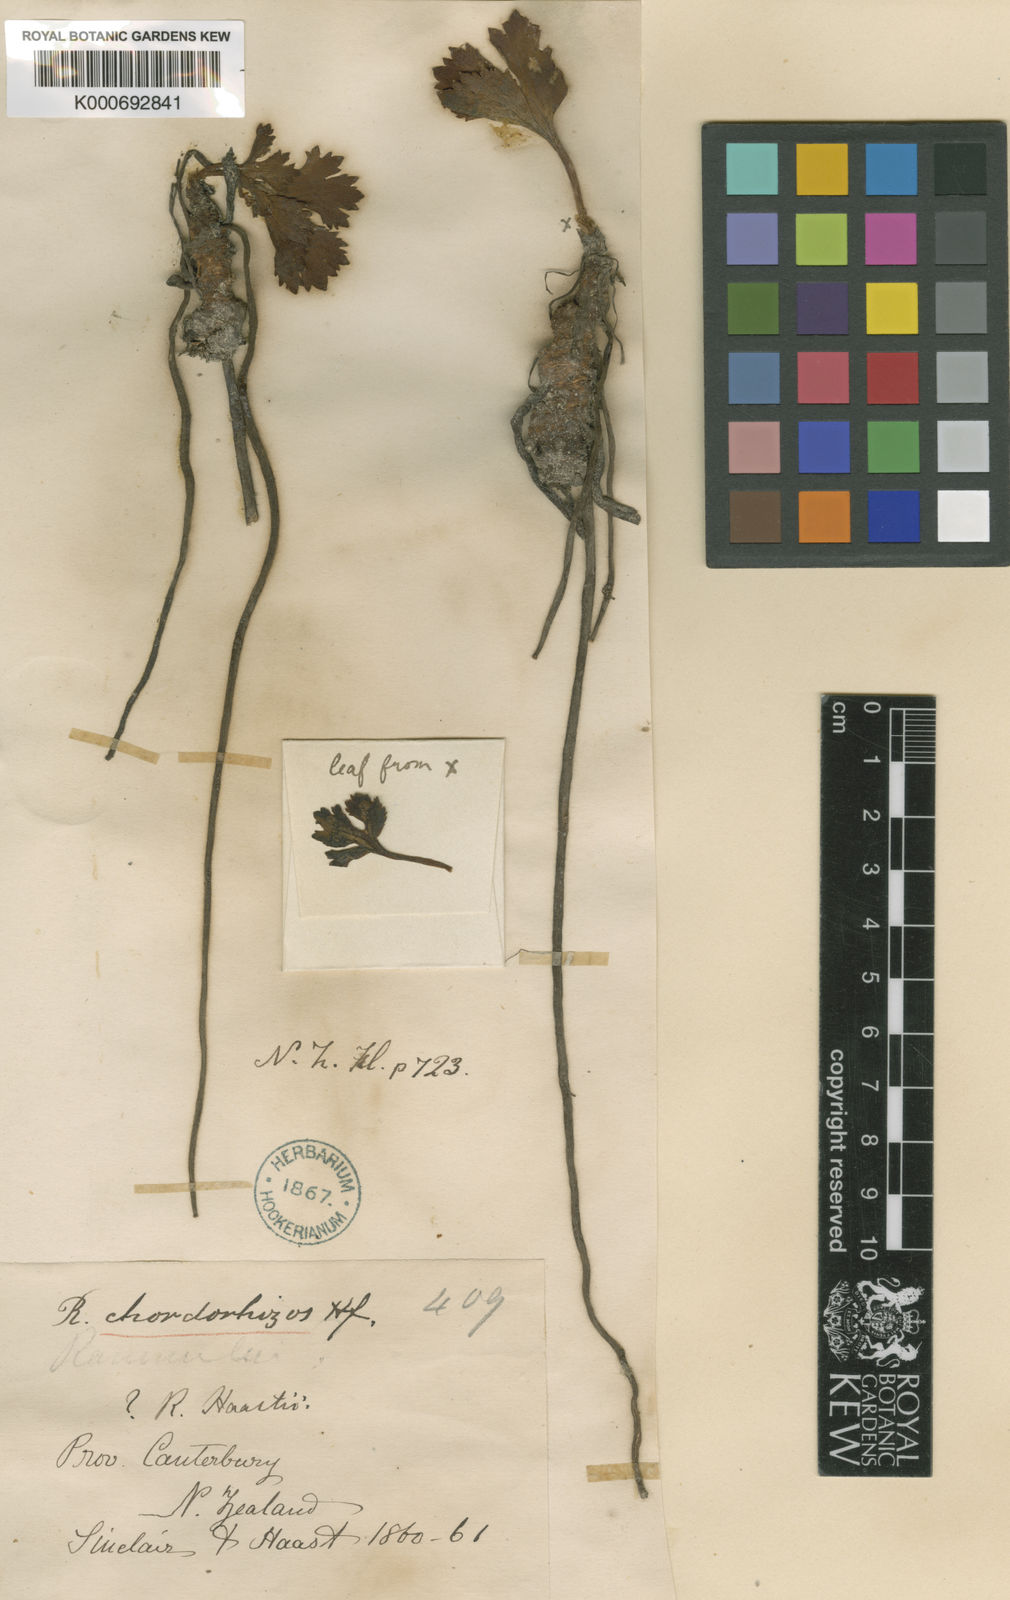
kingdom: Plantae
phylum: Tracheophyta
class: Magnoliopsida
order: Ranunculales
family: Ranunculaceae
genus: Ranunculus
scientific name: Ranunculus crithmifolius
